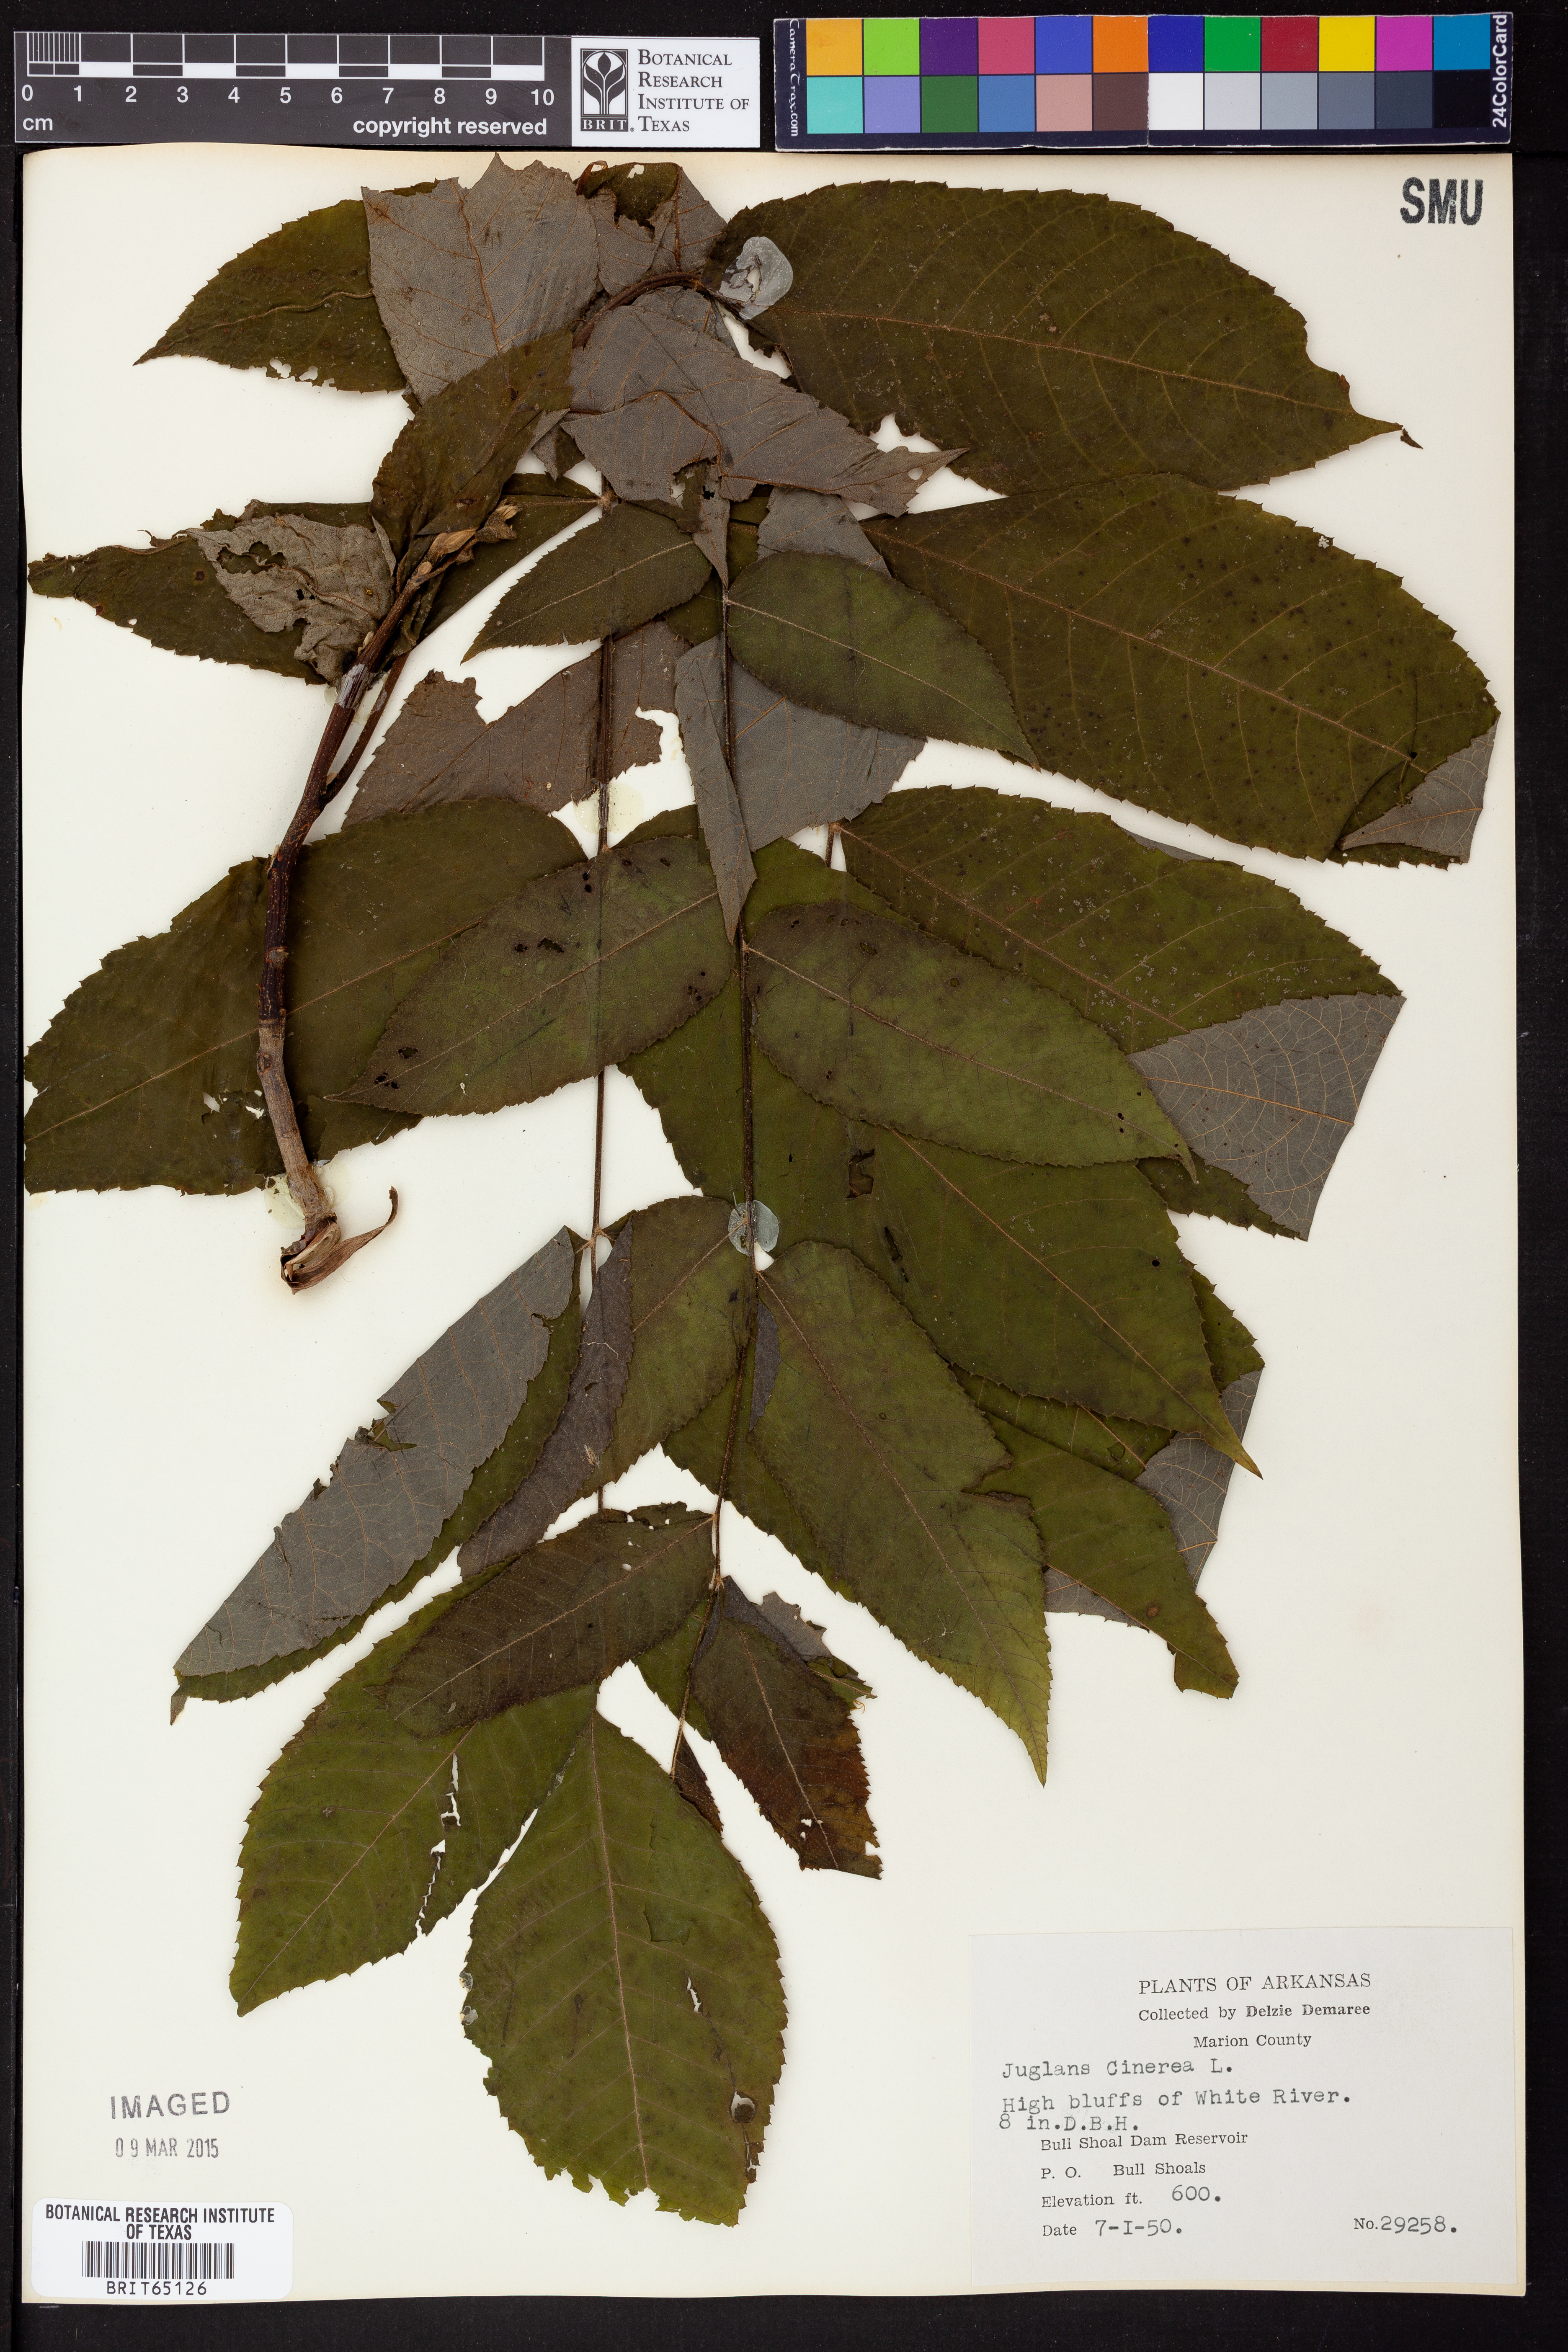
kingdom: Plantae
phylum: Tracheophyta
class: Magnoliopsida
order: Fagales
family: Juglandaceae
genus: Juglans
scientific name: Juglans cinerea
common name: Butternut
